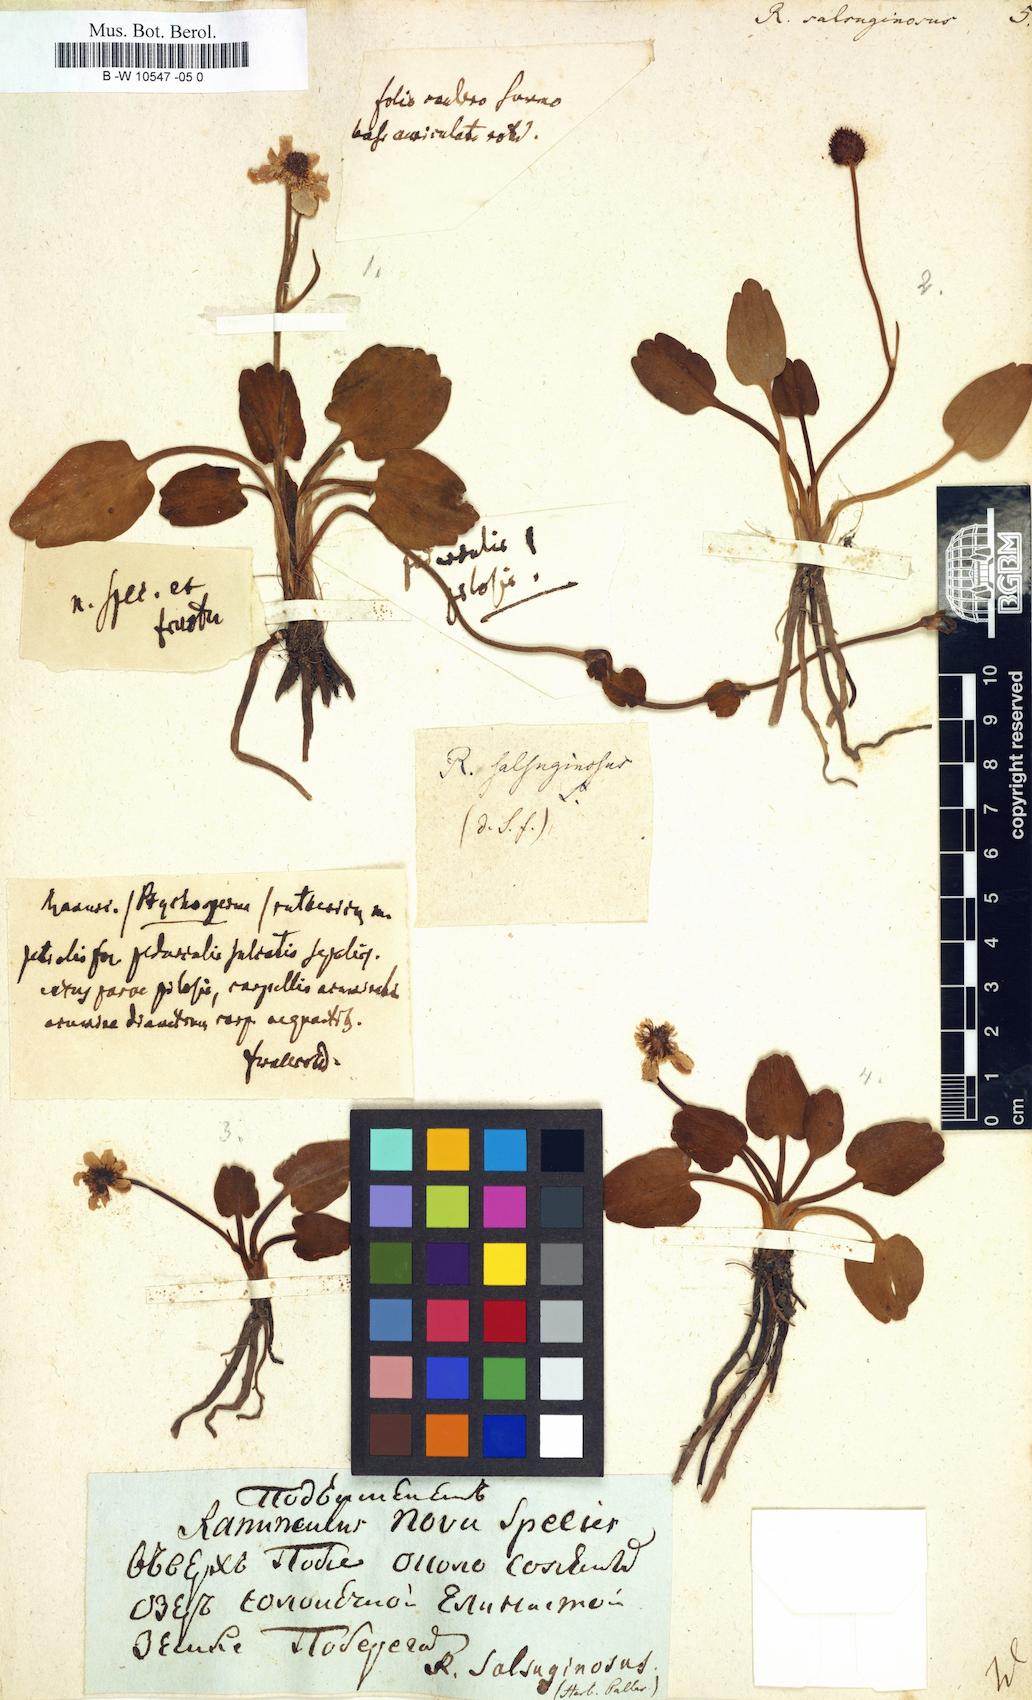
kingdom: Plantae
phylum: Tracheophyta
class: Magnoliopsida
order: Ranunculales
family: Ranunculaceae
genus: Halerpestes
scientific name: Halerpestes ruthenica
